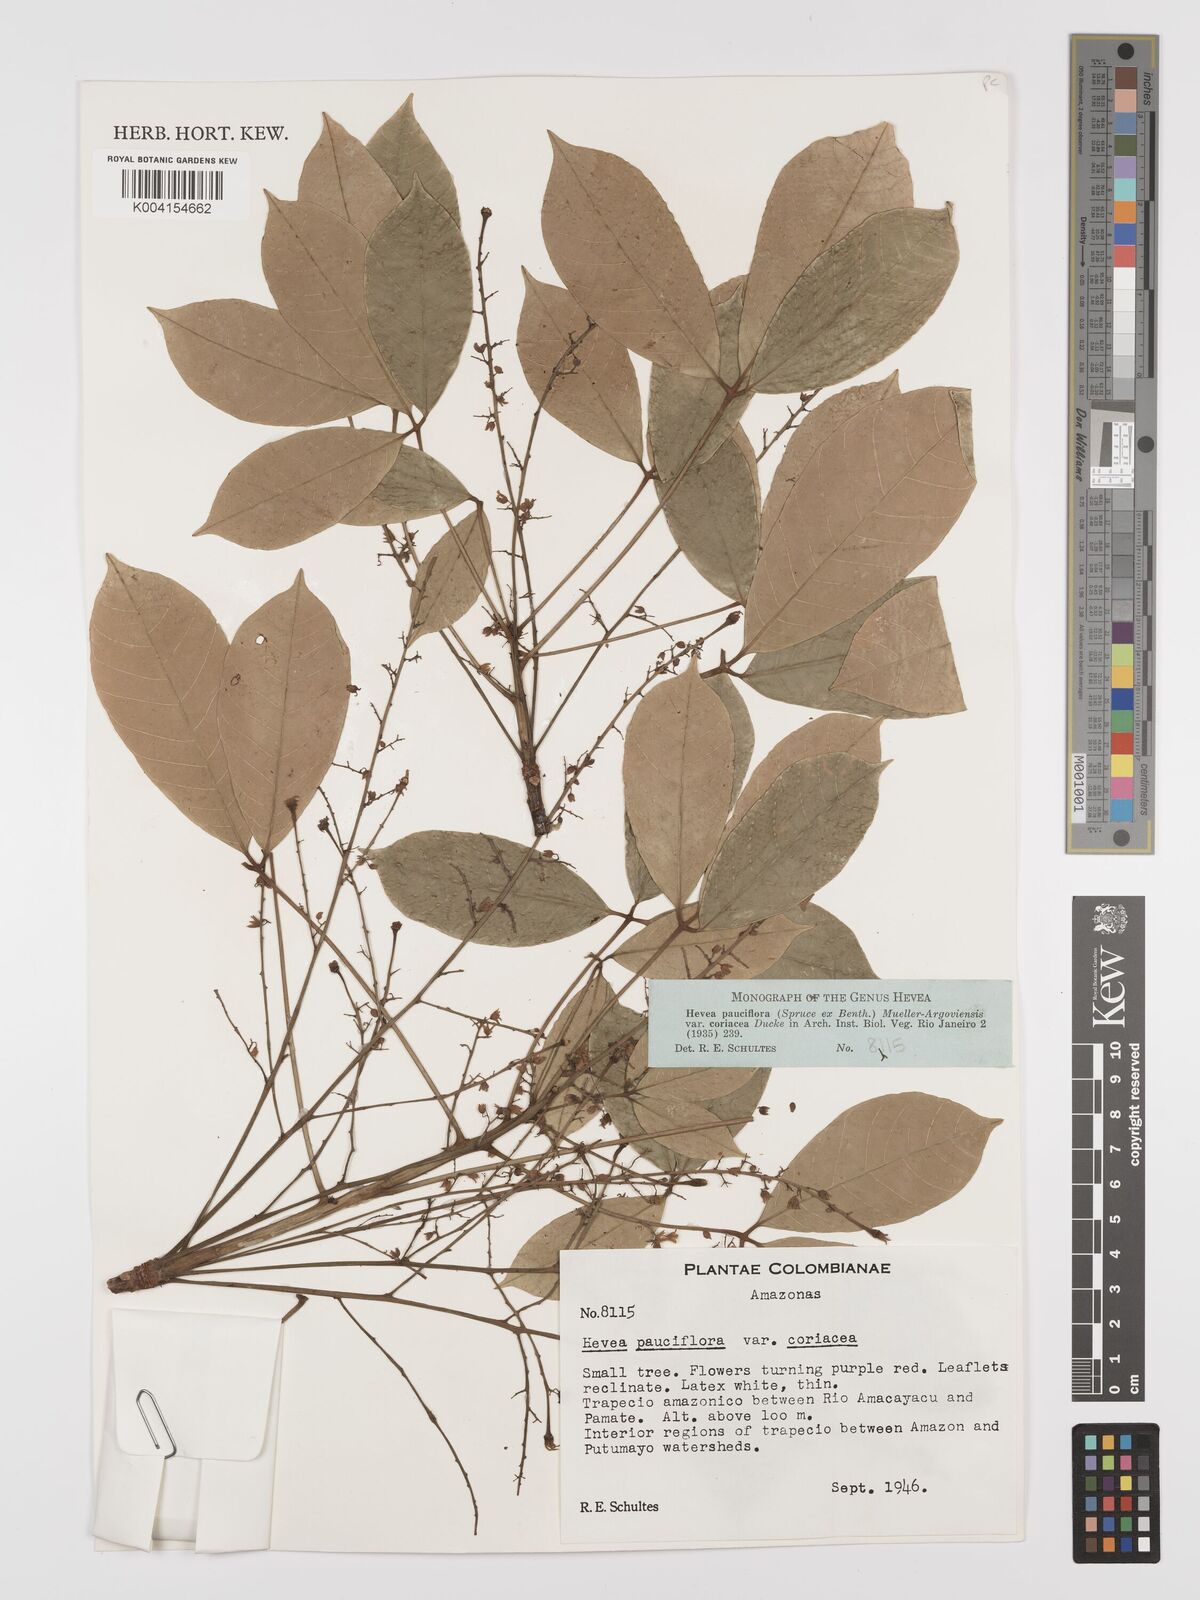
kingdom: Plantae
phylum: Tracheophyta
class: Magnoliopsida
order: Malpighiales
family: Euphorbiaceae
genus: Hevea
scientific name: Hevea pauciflora
